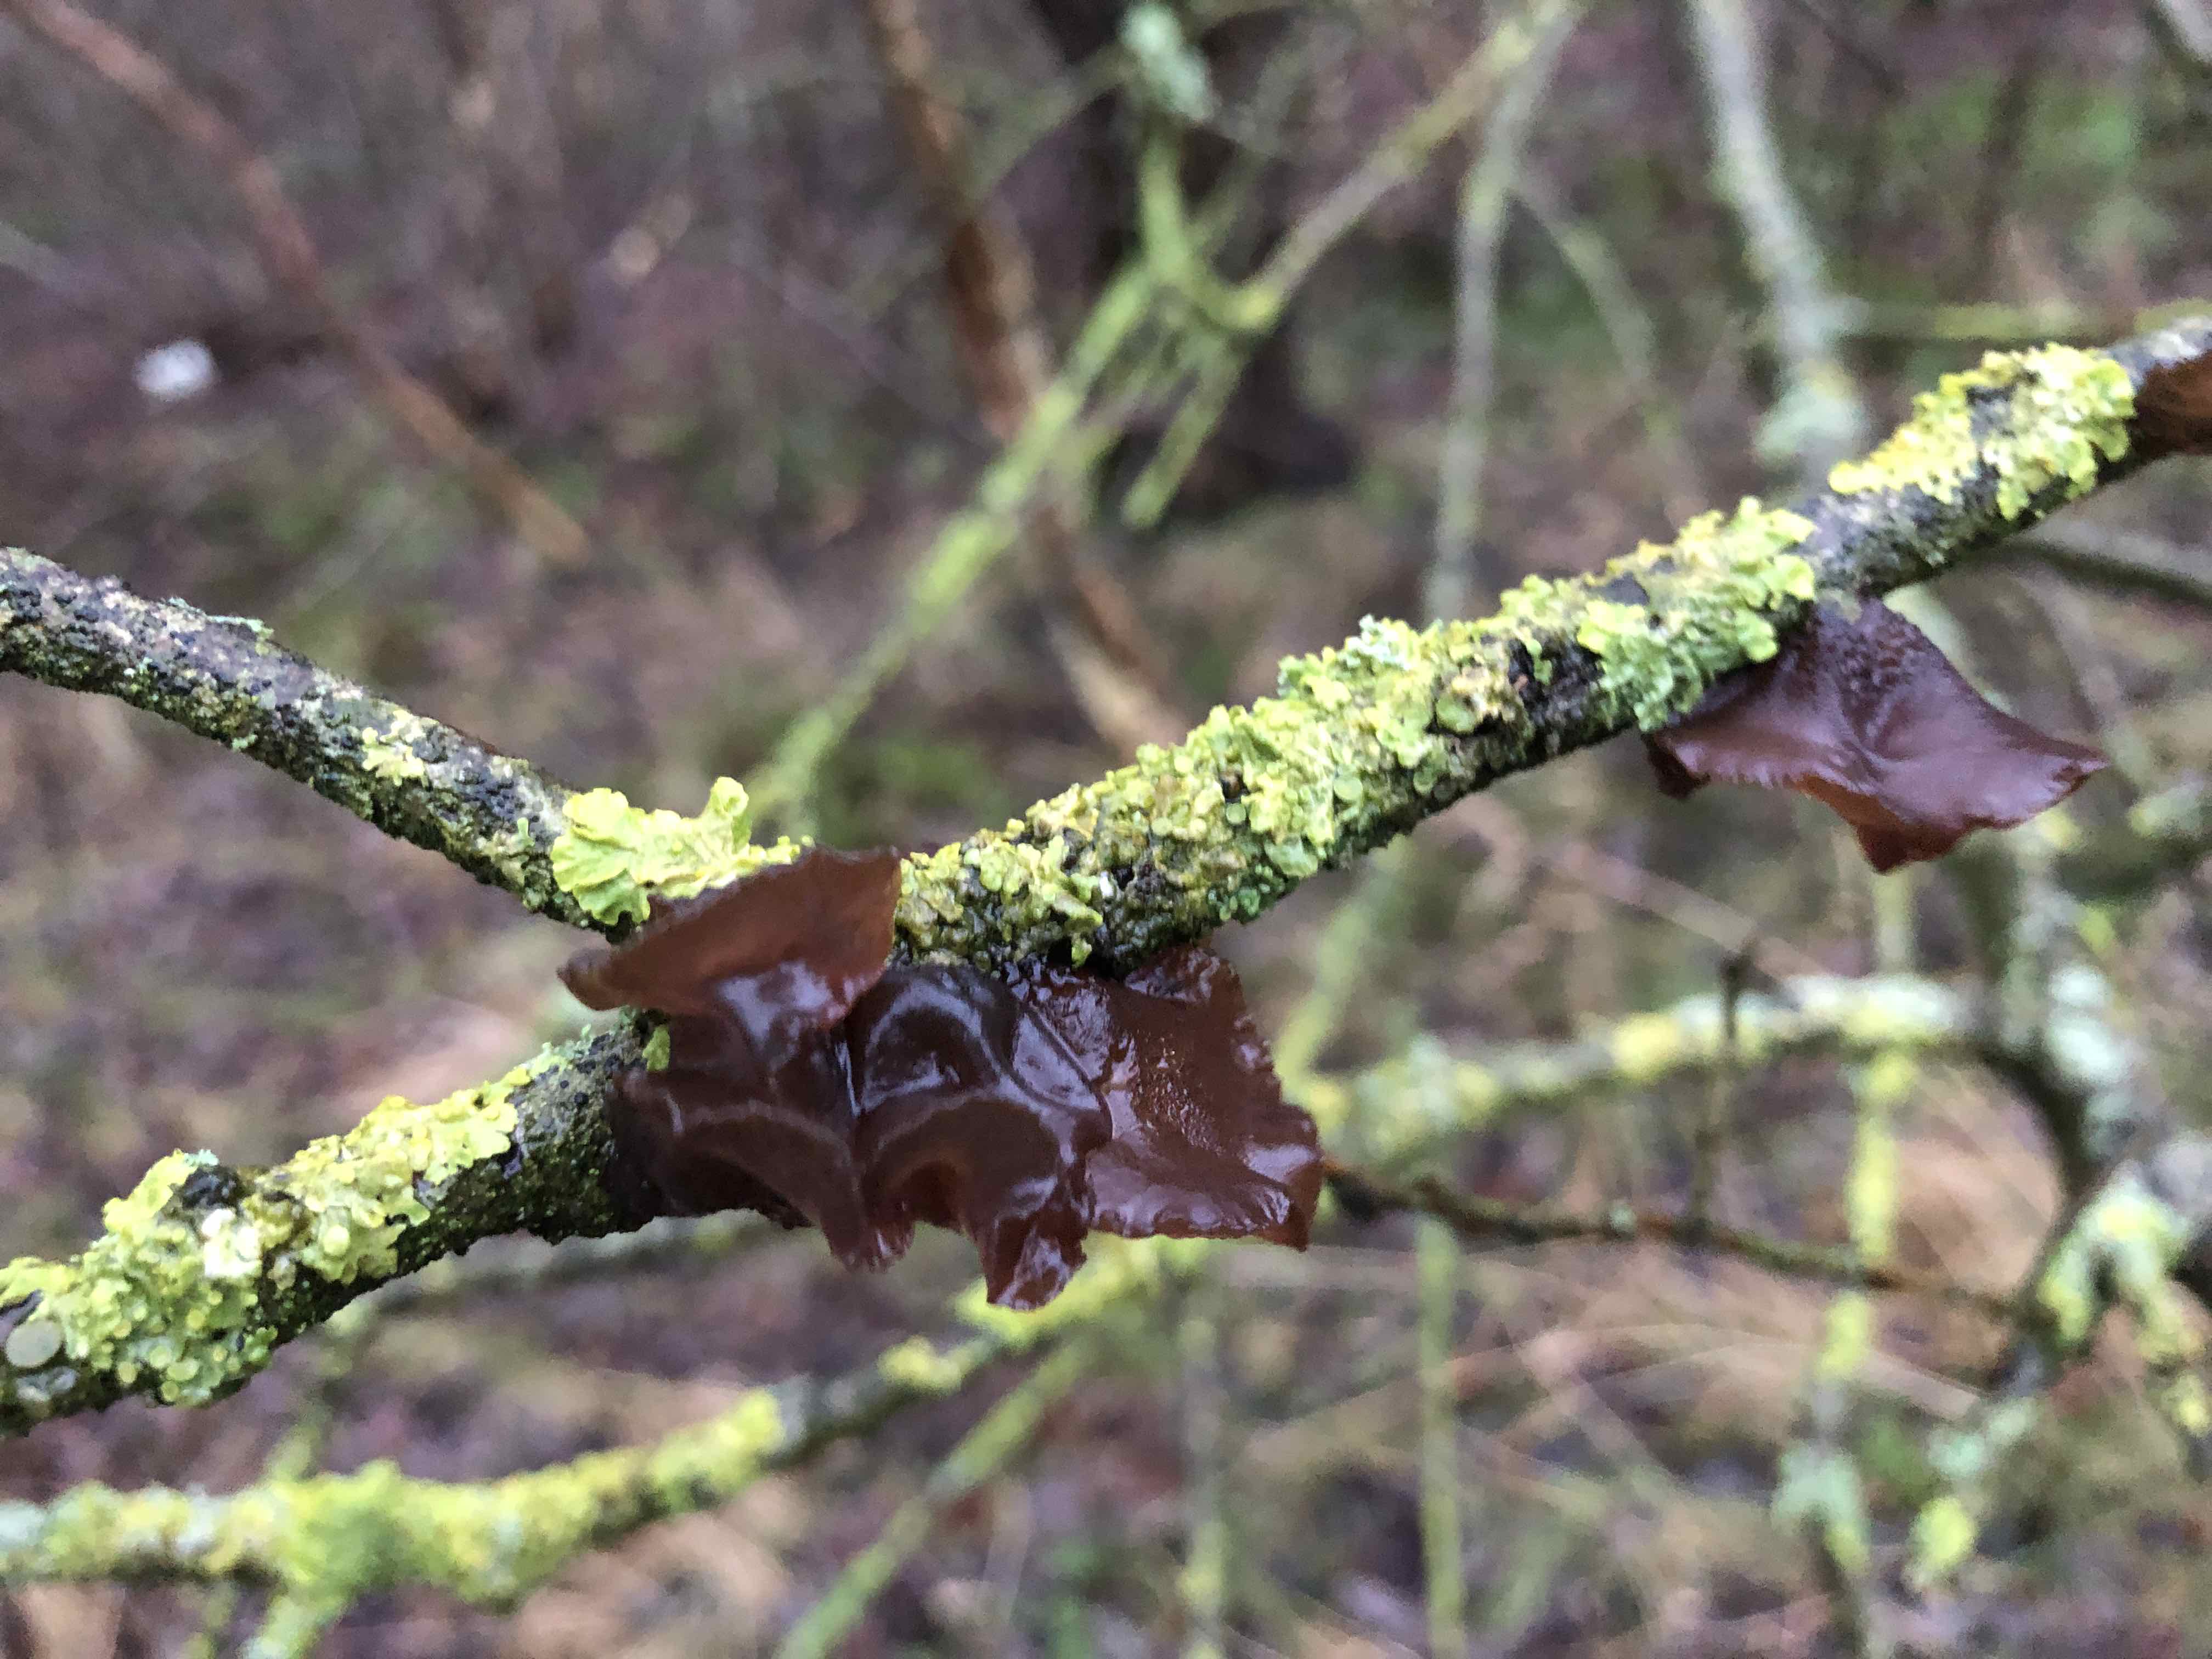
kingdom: Fungi
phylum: Basidiomycota
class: Agaricomycetes
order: Auriculariales
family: Auriculariaceae
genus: Exidia
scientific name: Exidia recisa
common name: pile-bævretop
